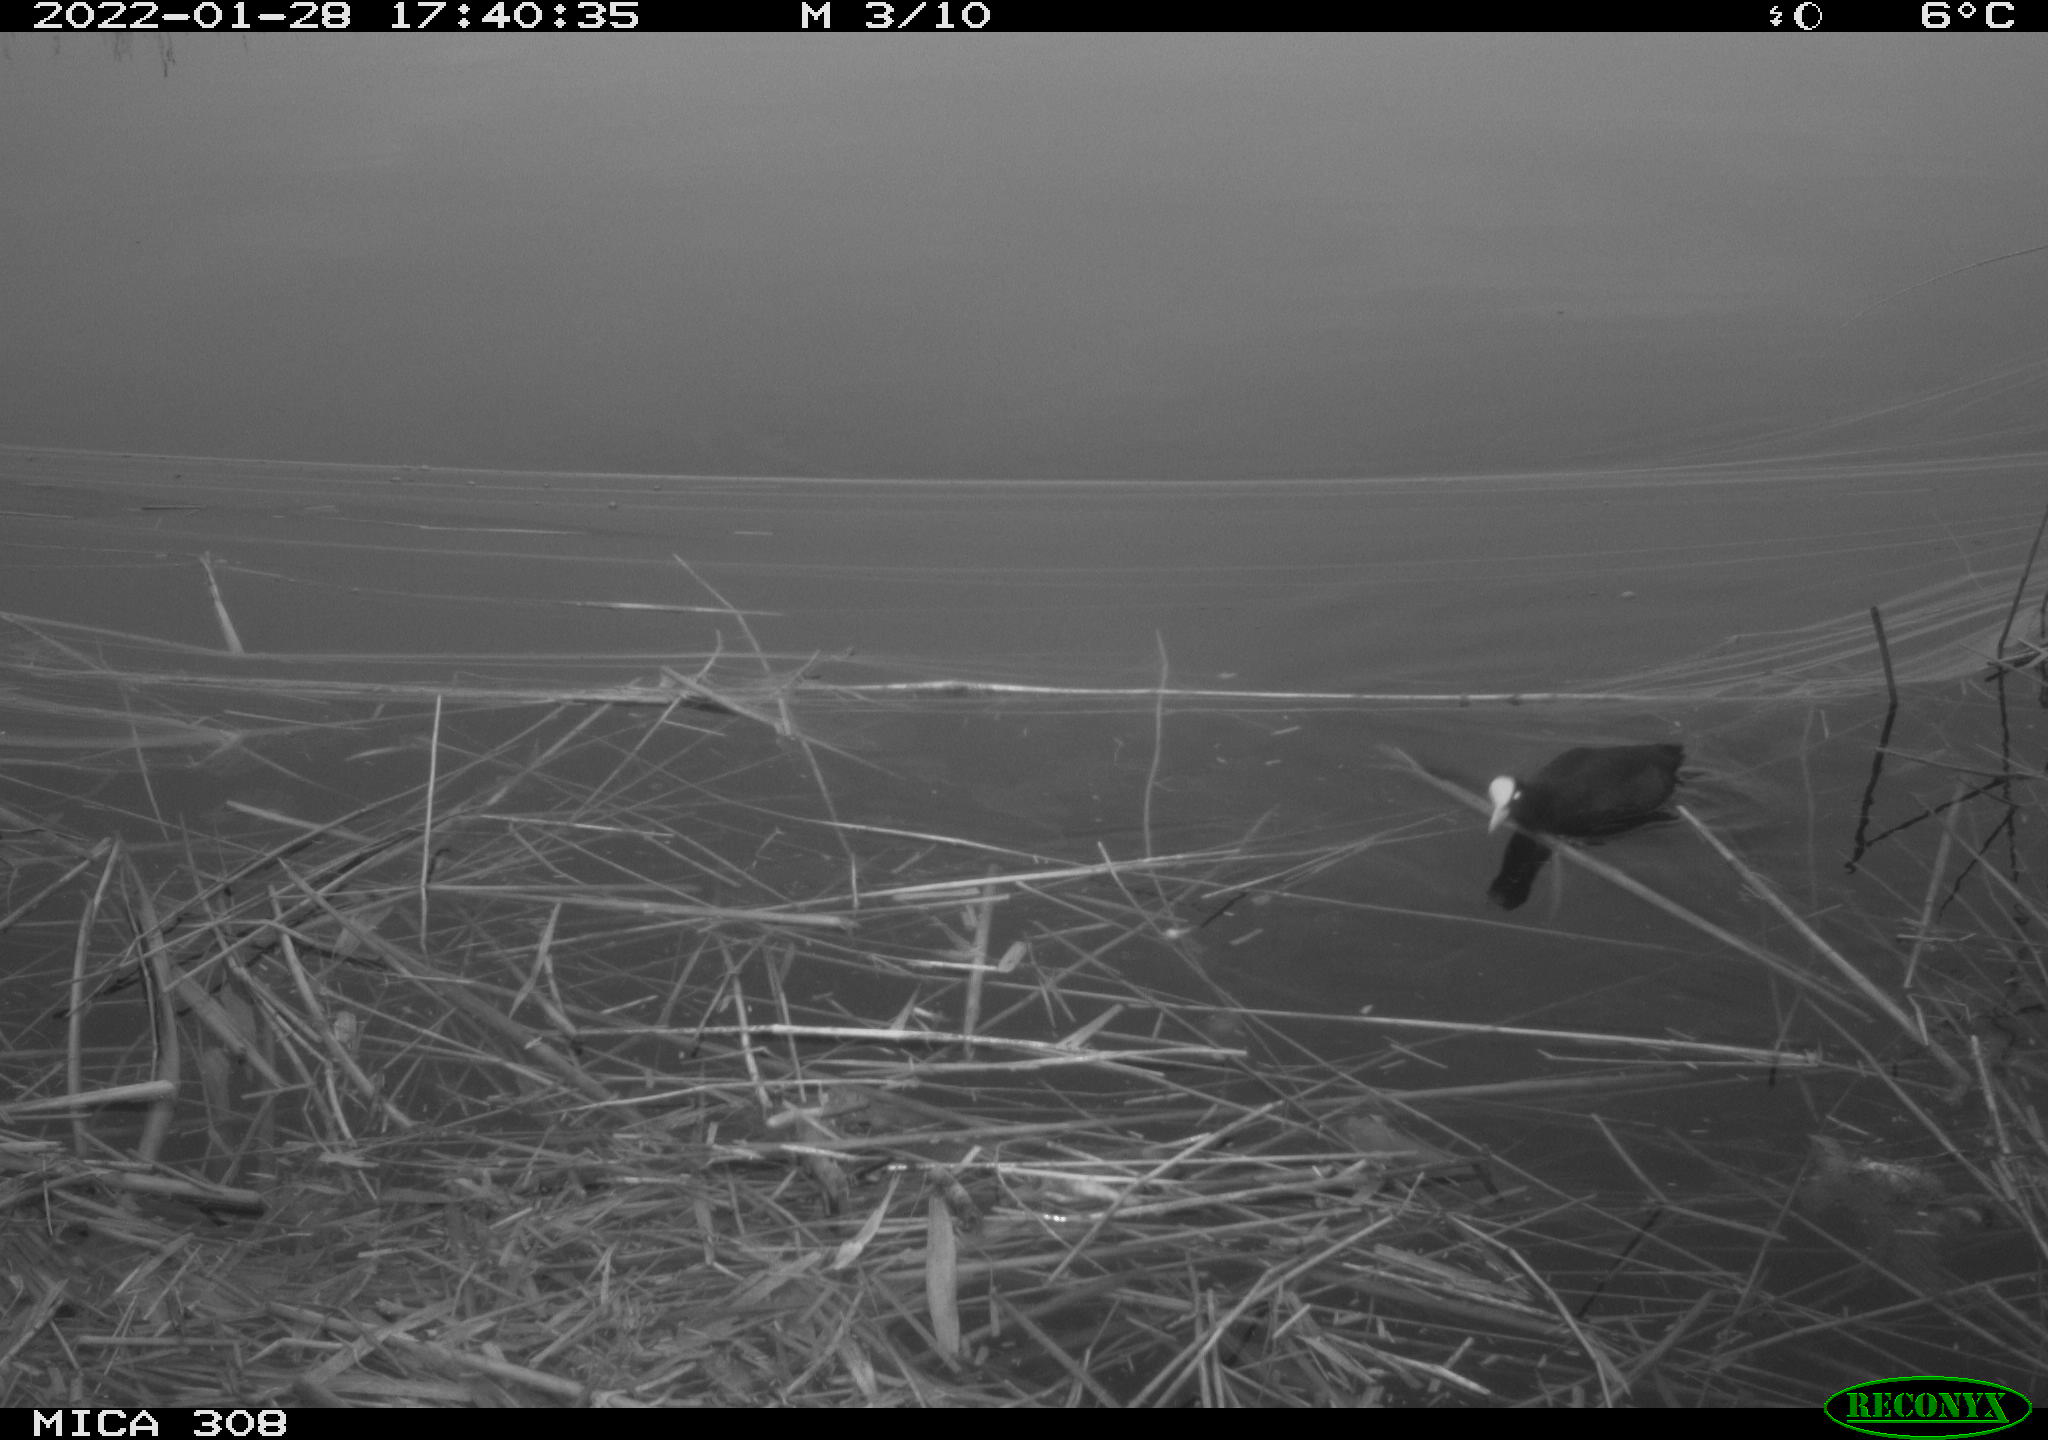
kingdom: Animalia
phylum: Chordata
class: Aves
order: Gruiformes
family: Rallidae
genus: Fulica
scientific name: Fulica atra
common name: Eurasian coot
